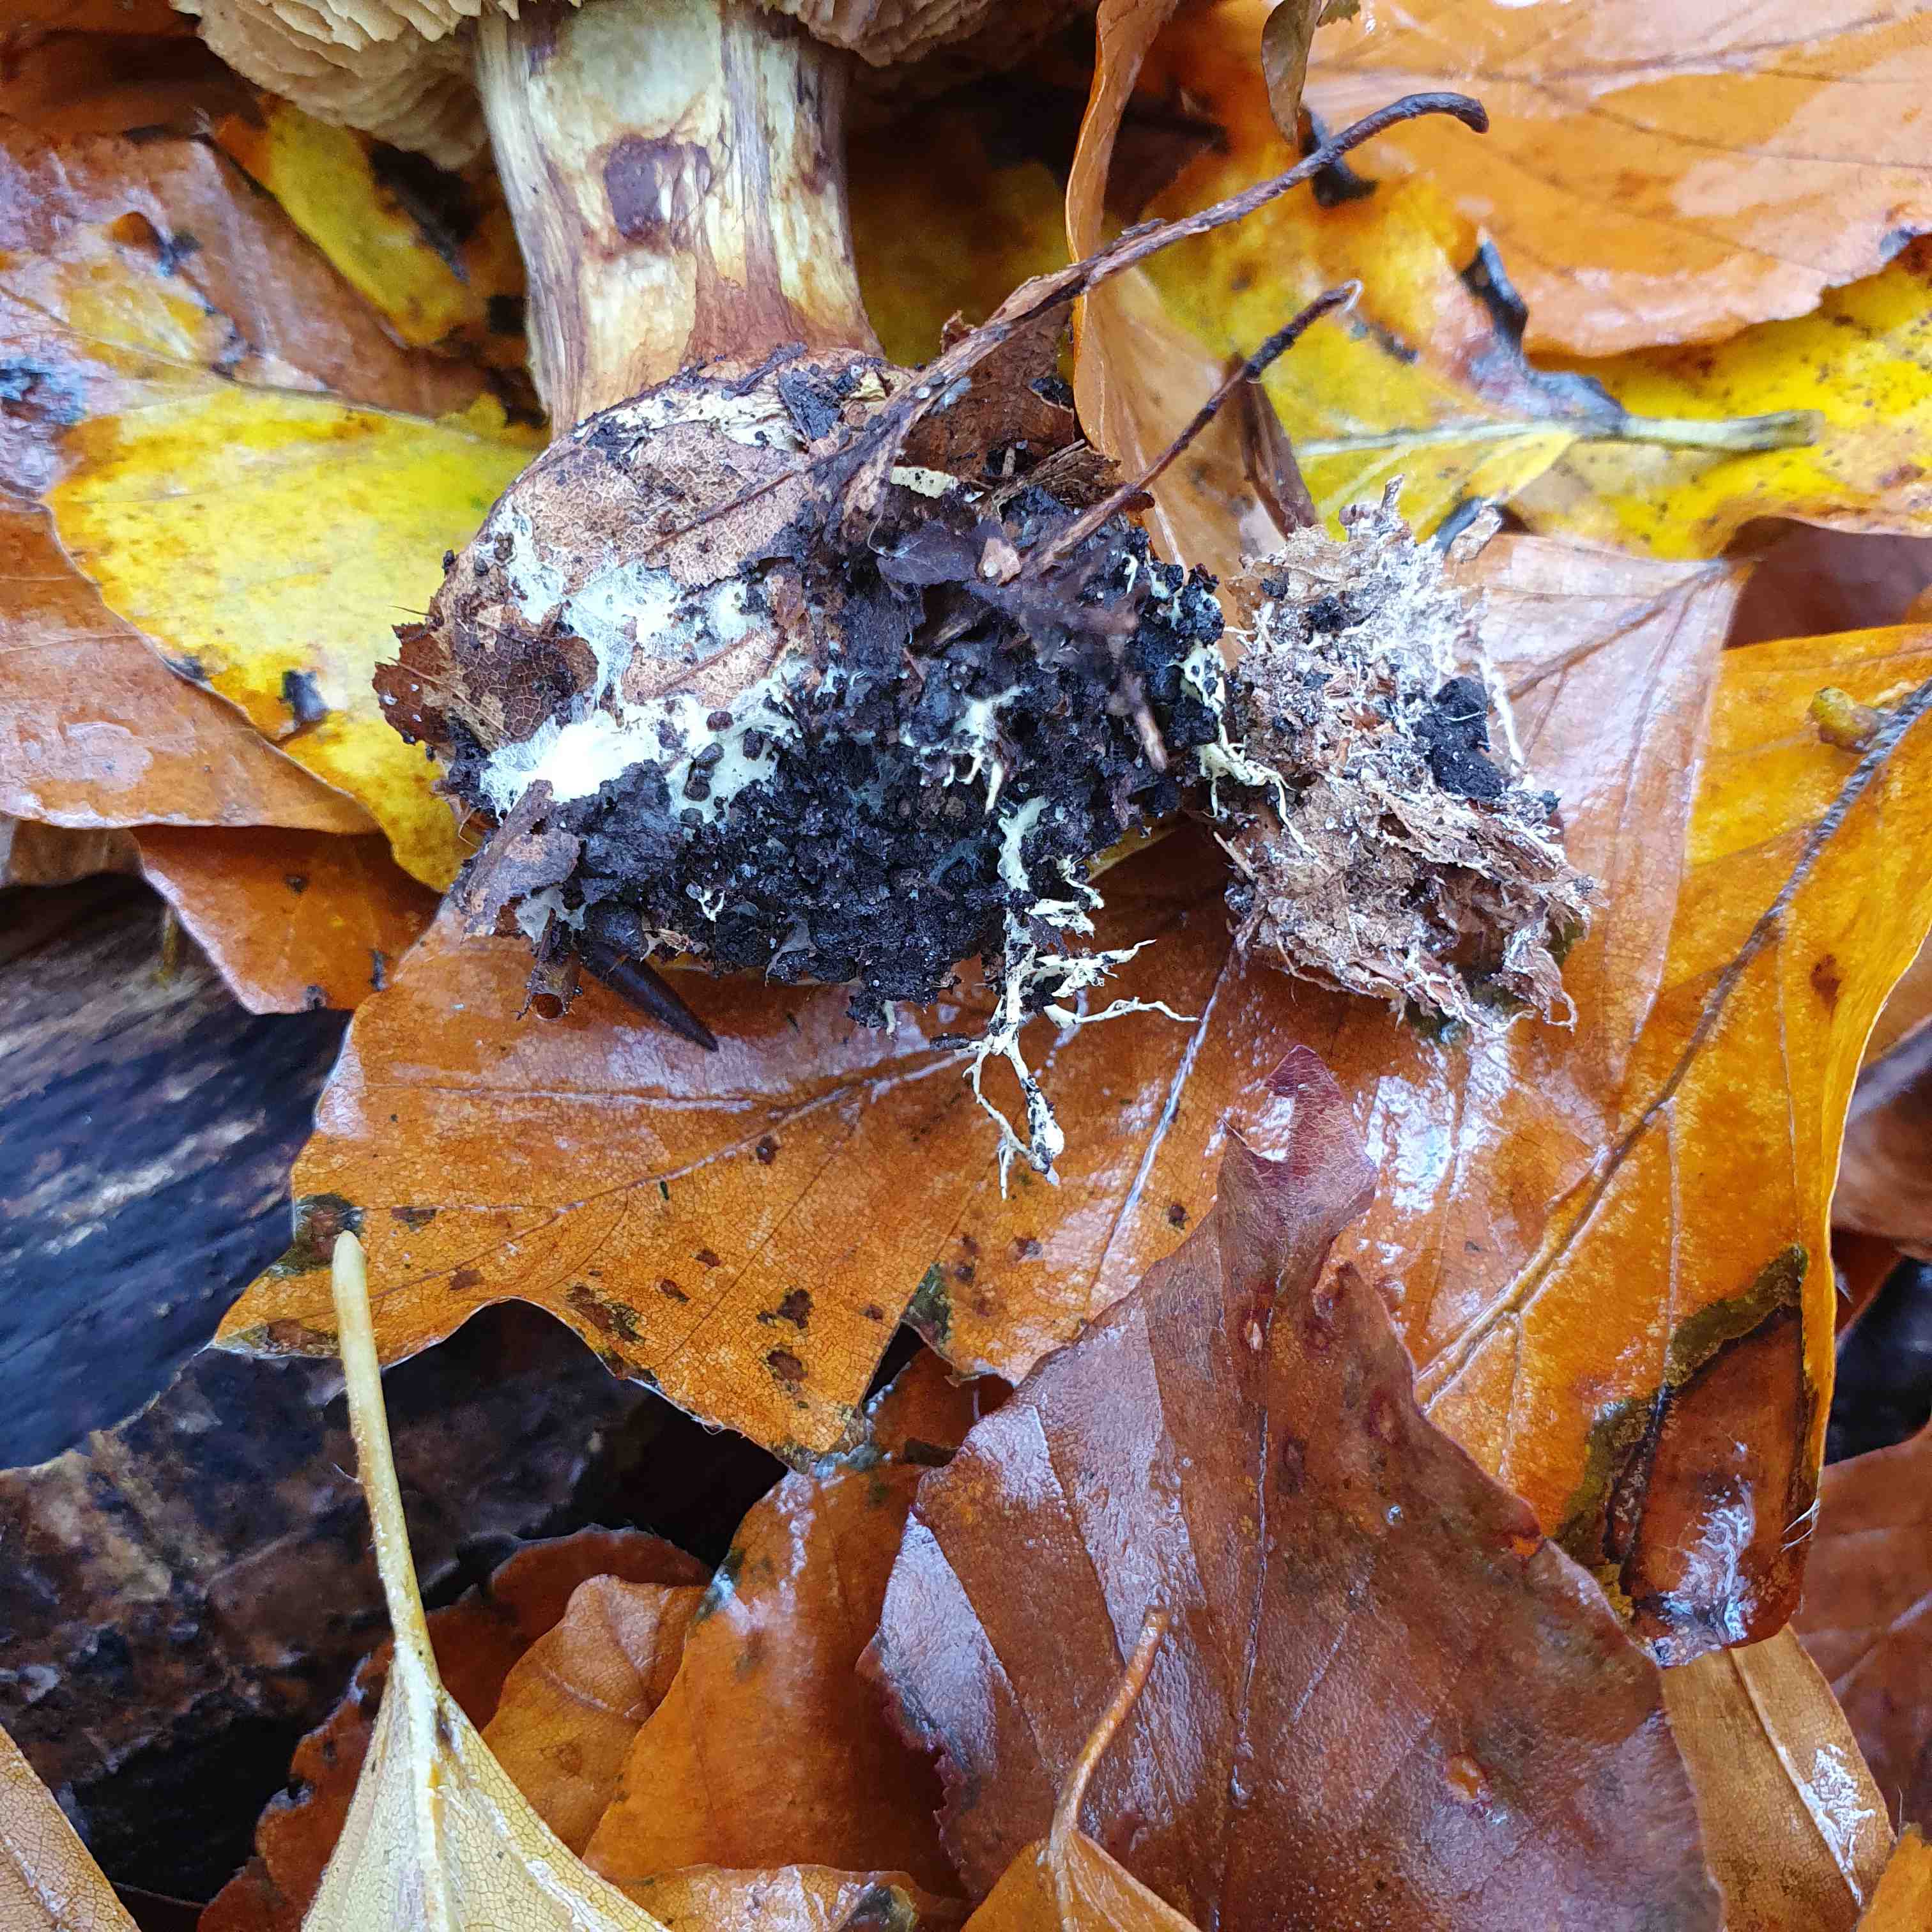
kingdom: Fungi
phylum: Basidiomycota
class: Agaricomycetes
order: Agaricales
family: Cortinariaceae
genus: Calonarius
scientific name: Calonarius citrinus
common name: citrongul slørhat
